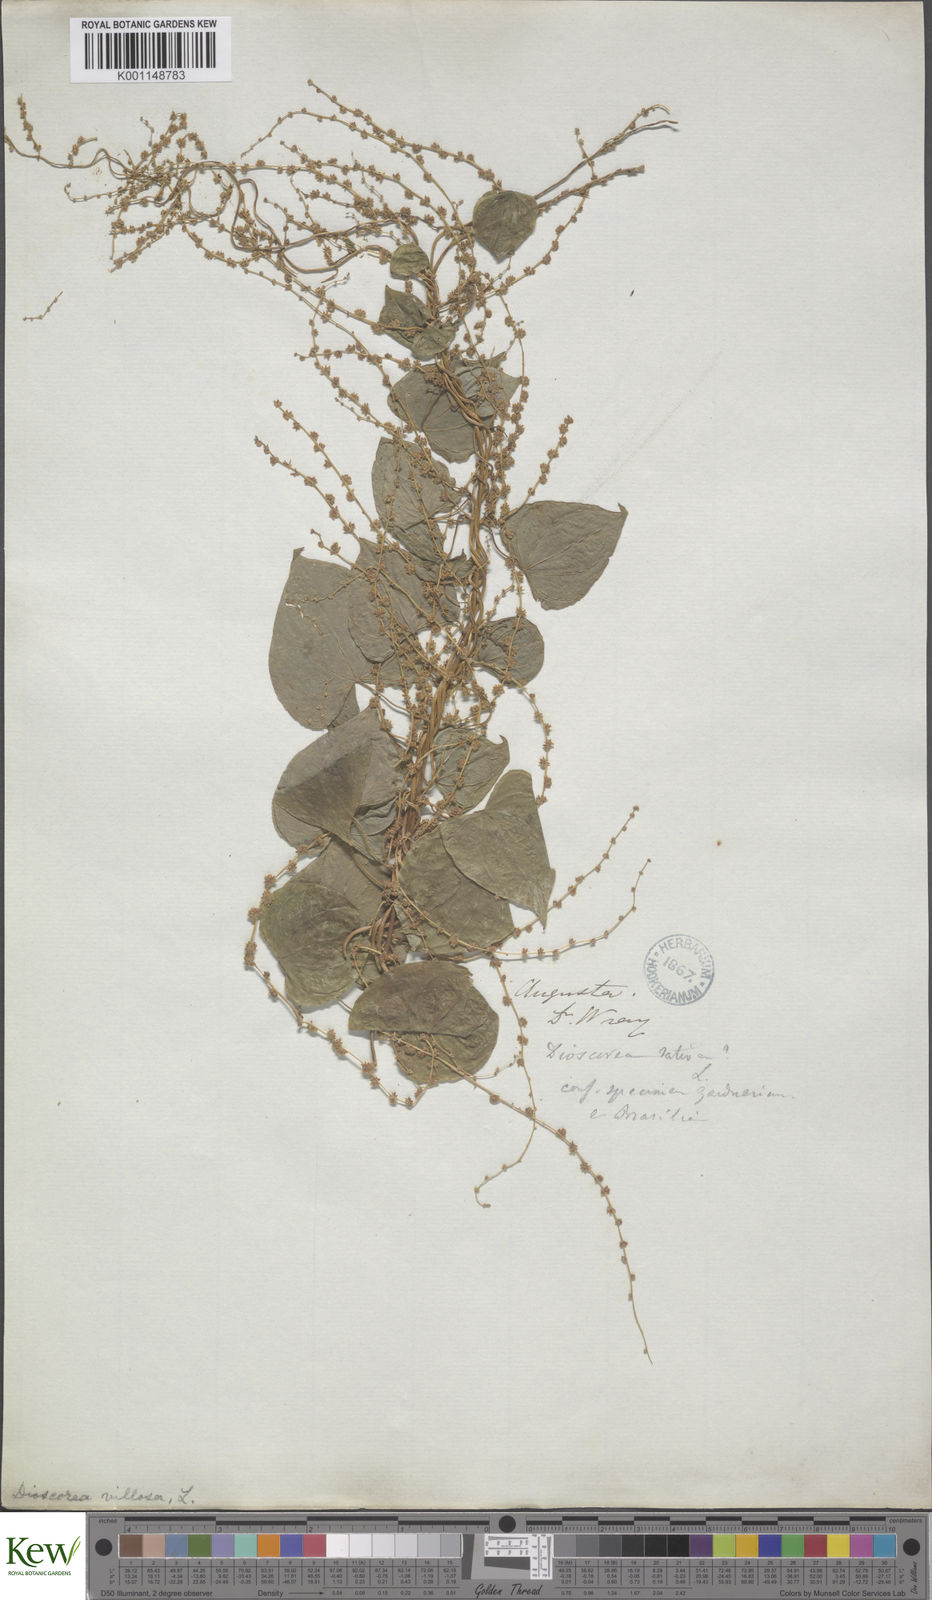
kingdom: Plantae
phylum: Tracheophyta
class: Liliopsida
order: Dioscoreales
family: Dioscoreaceae
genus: Dioscorea
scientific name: Dioscorea villosa
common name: Wild yam
